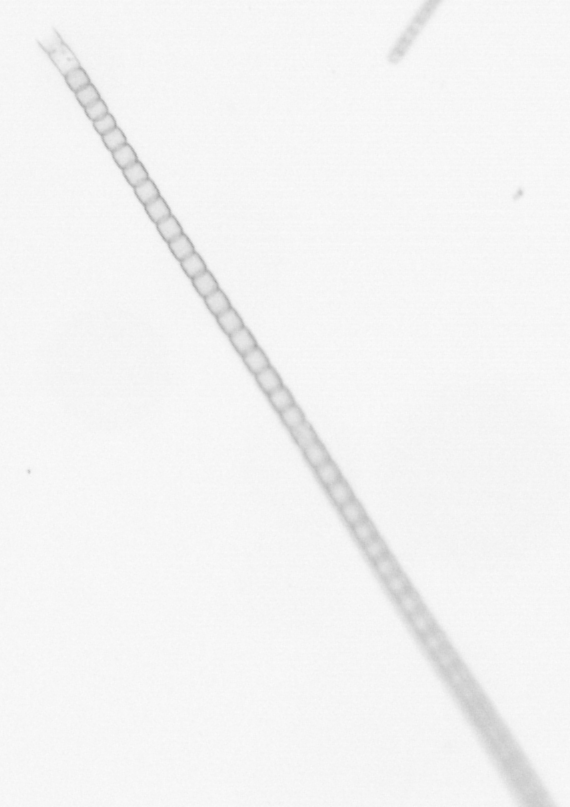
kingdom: Chromista
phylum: Ochrophyta
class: Bacillariophyceae
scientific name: Bacillariophyceae
